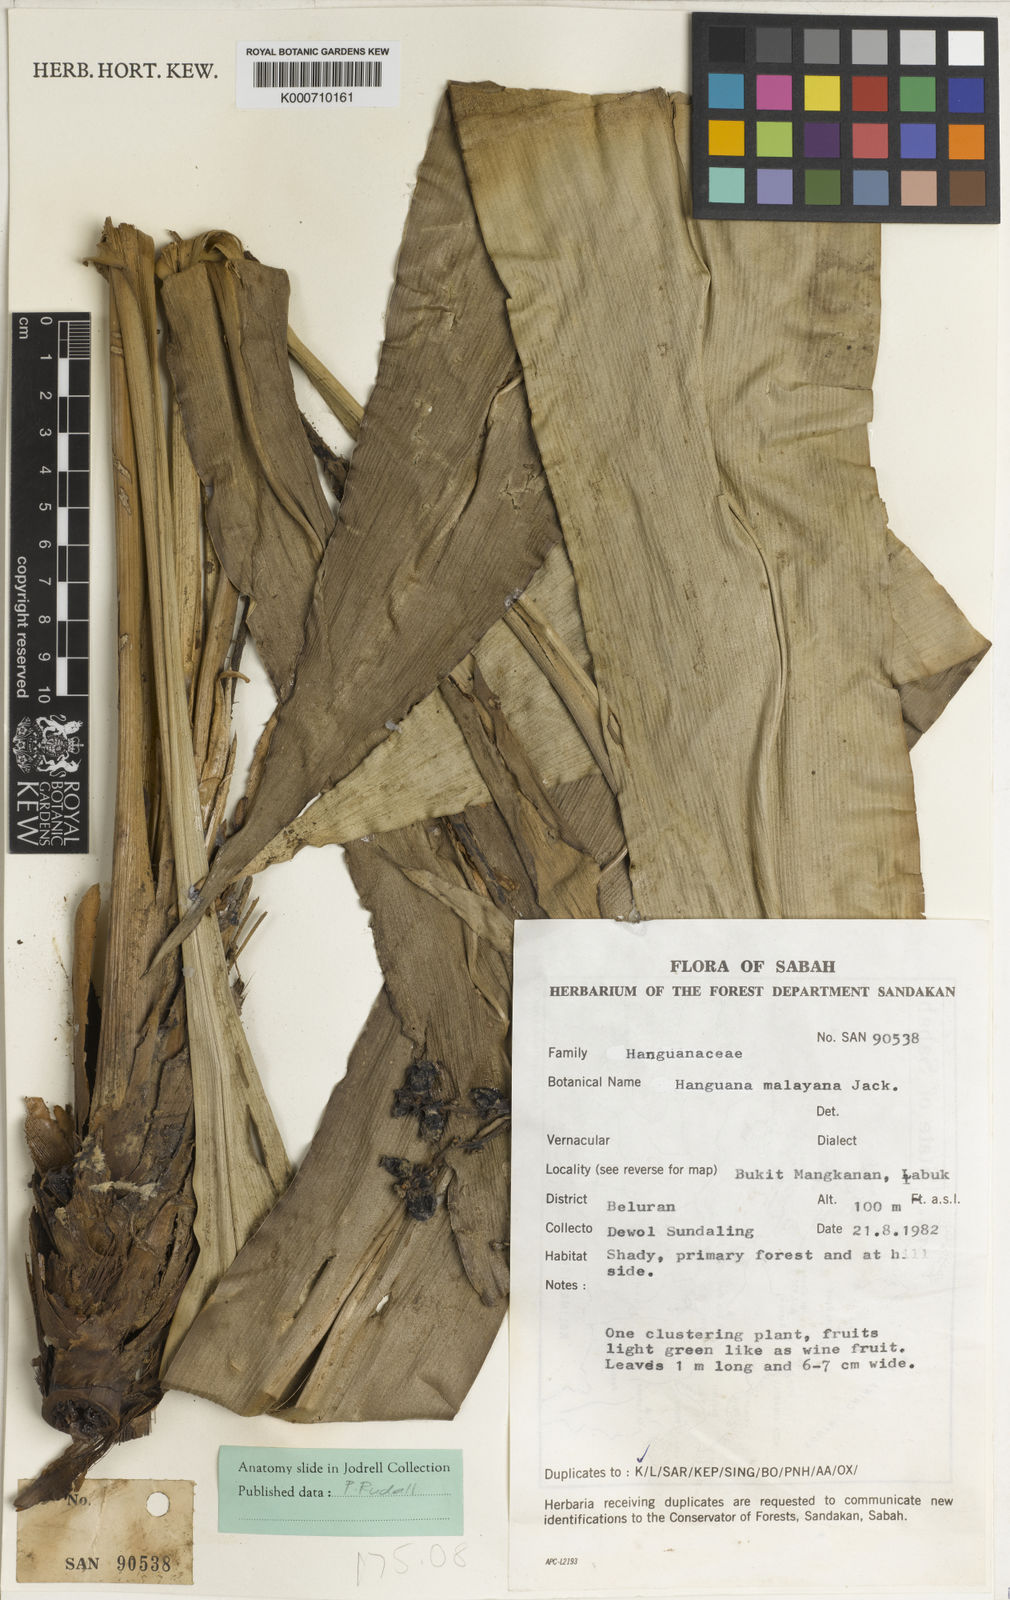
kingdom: Plantae
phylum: Tracheophyta
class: Liliopsida
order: Commelinales
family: Hanguanaceae
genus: Hanguana
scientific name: Hanguana malayana
